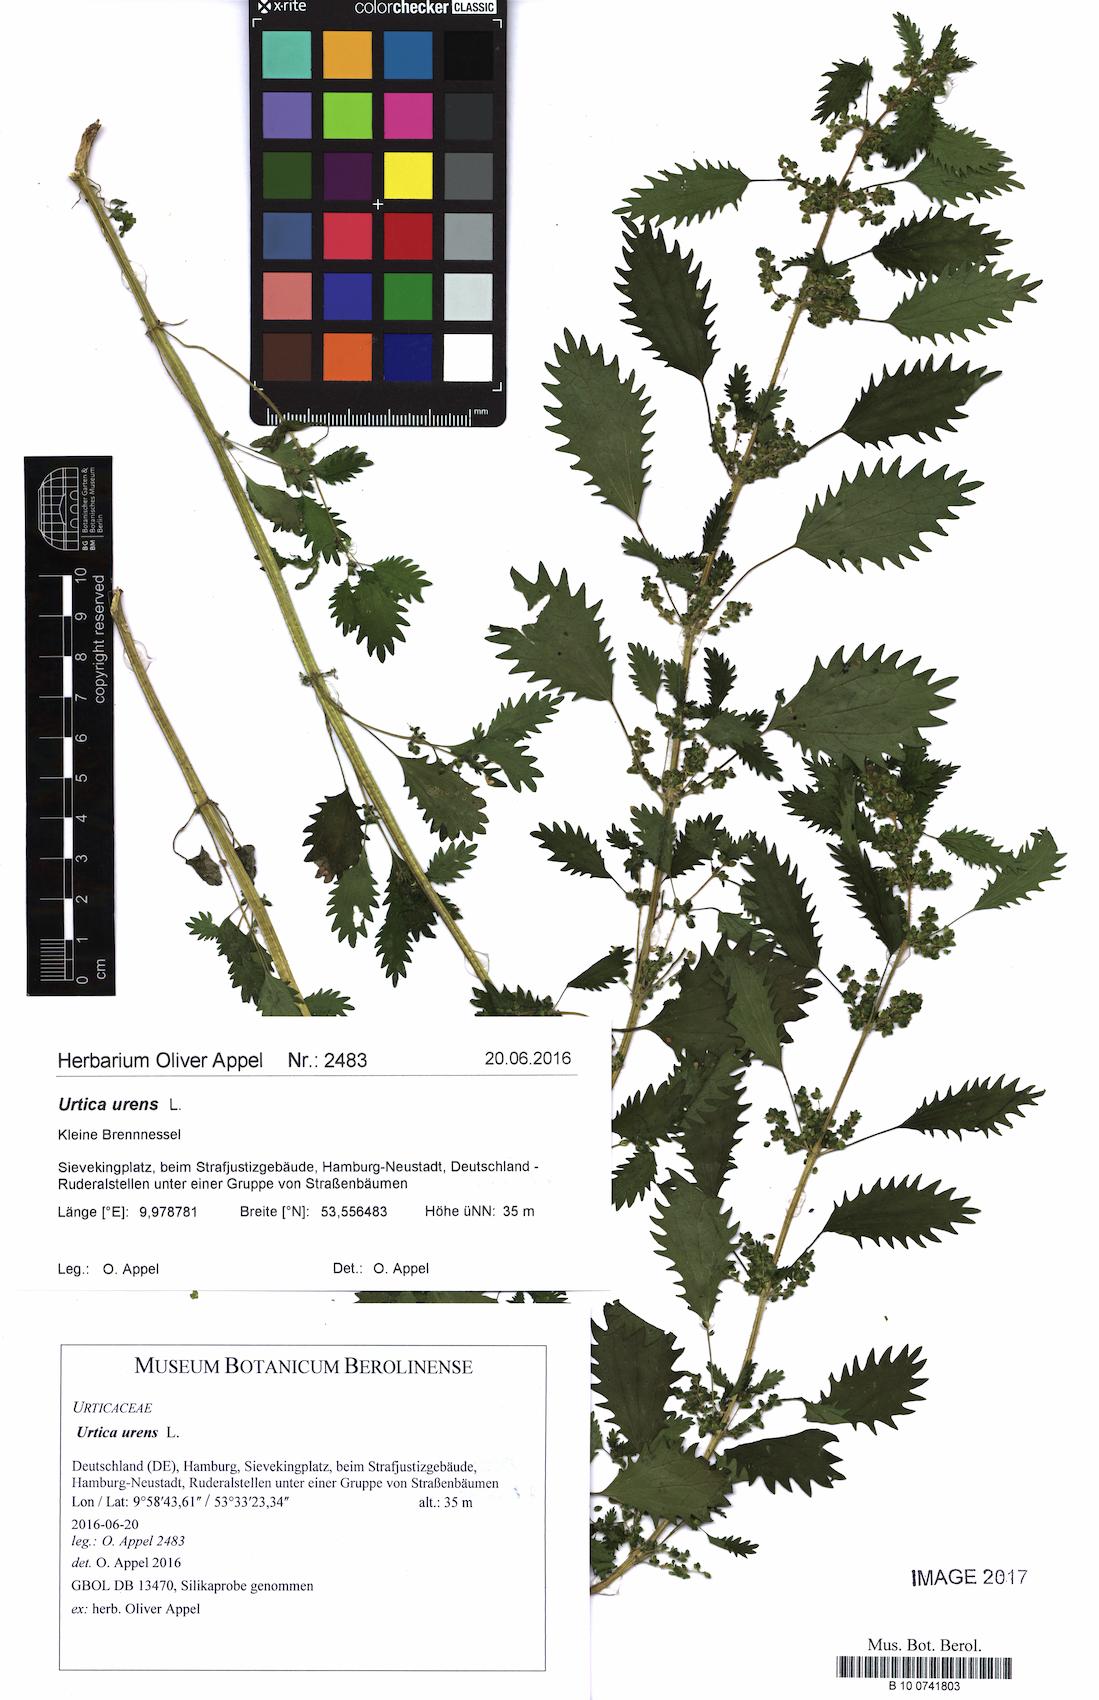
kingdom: Plantae
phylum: Tracheophyta
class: Magnoliopsida
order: Rosales
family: Urticaceae
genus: Urtica
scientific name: Urtica urens
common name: Dwarf nettle
